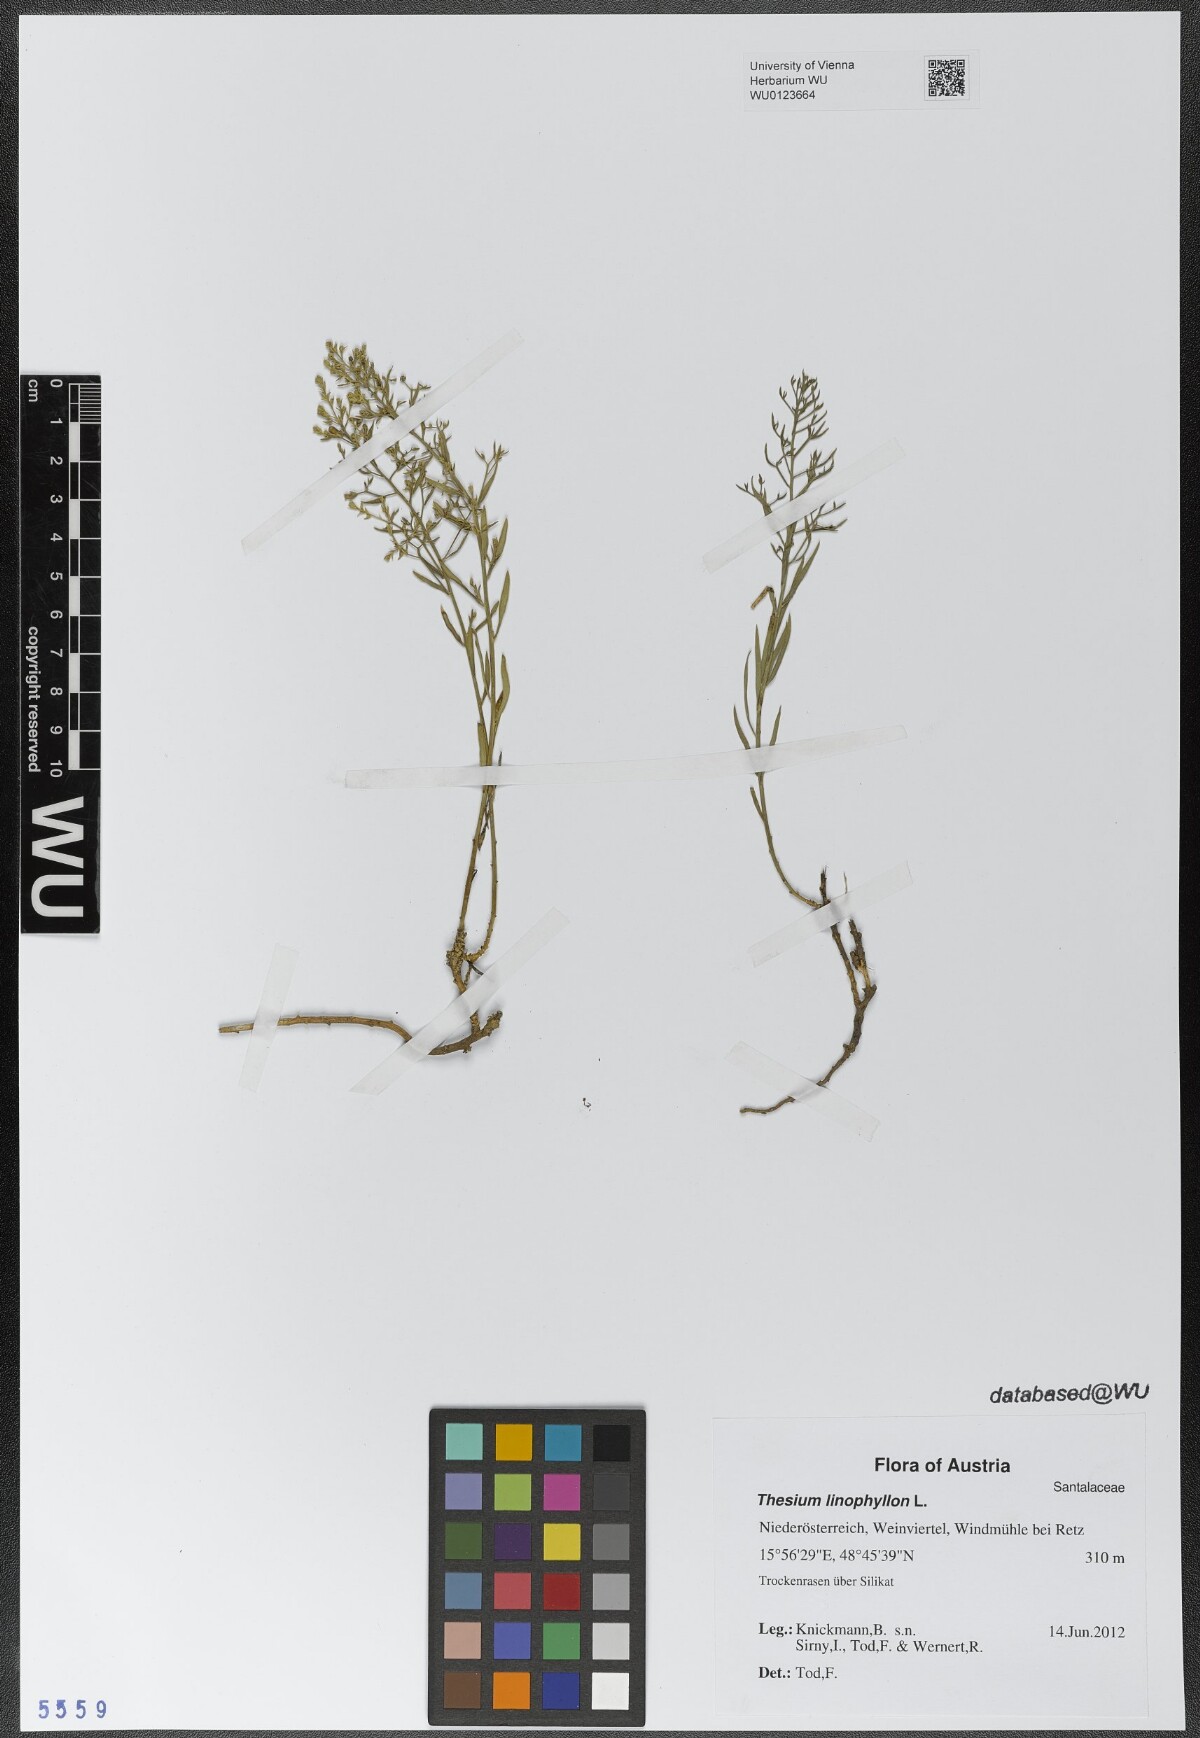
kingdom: Plantae
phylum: Tracheophyta
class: Magnoliopsida
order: Santalales
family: Thesiaceae
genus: Thesium
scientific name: Thesium linophyllon
